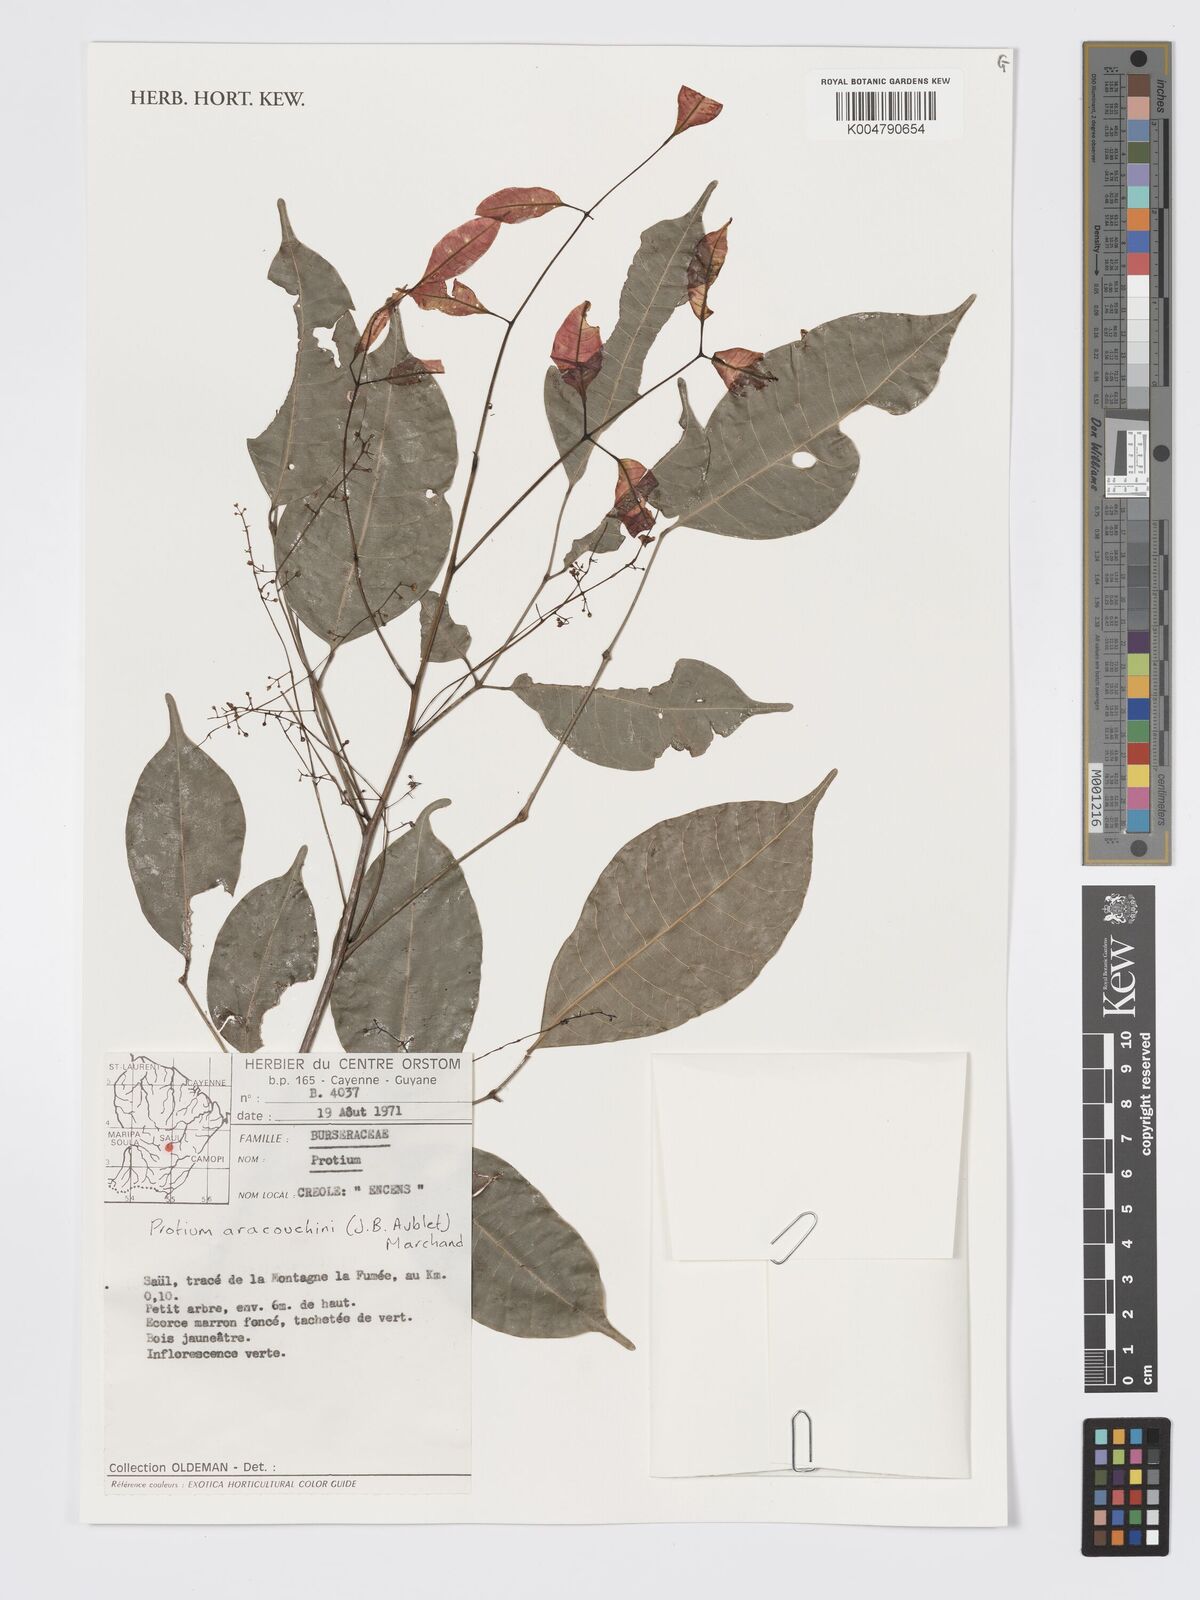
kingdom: Plantae
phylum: Tracheophyta
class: Magnoliopsida
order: Sapindales
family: Burseraceae
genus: Protium
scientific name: Protium aracouchini
